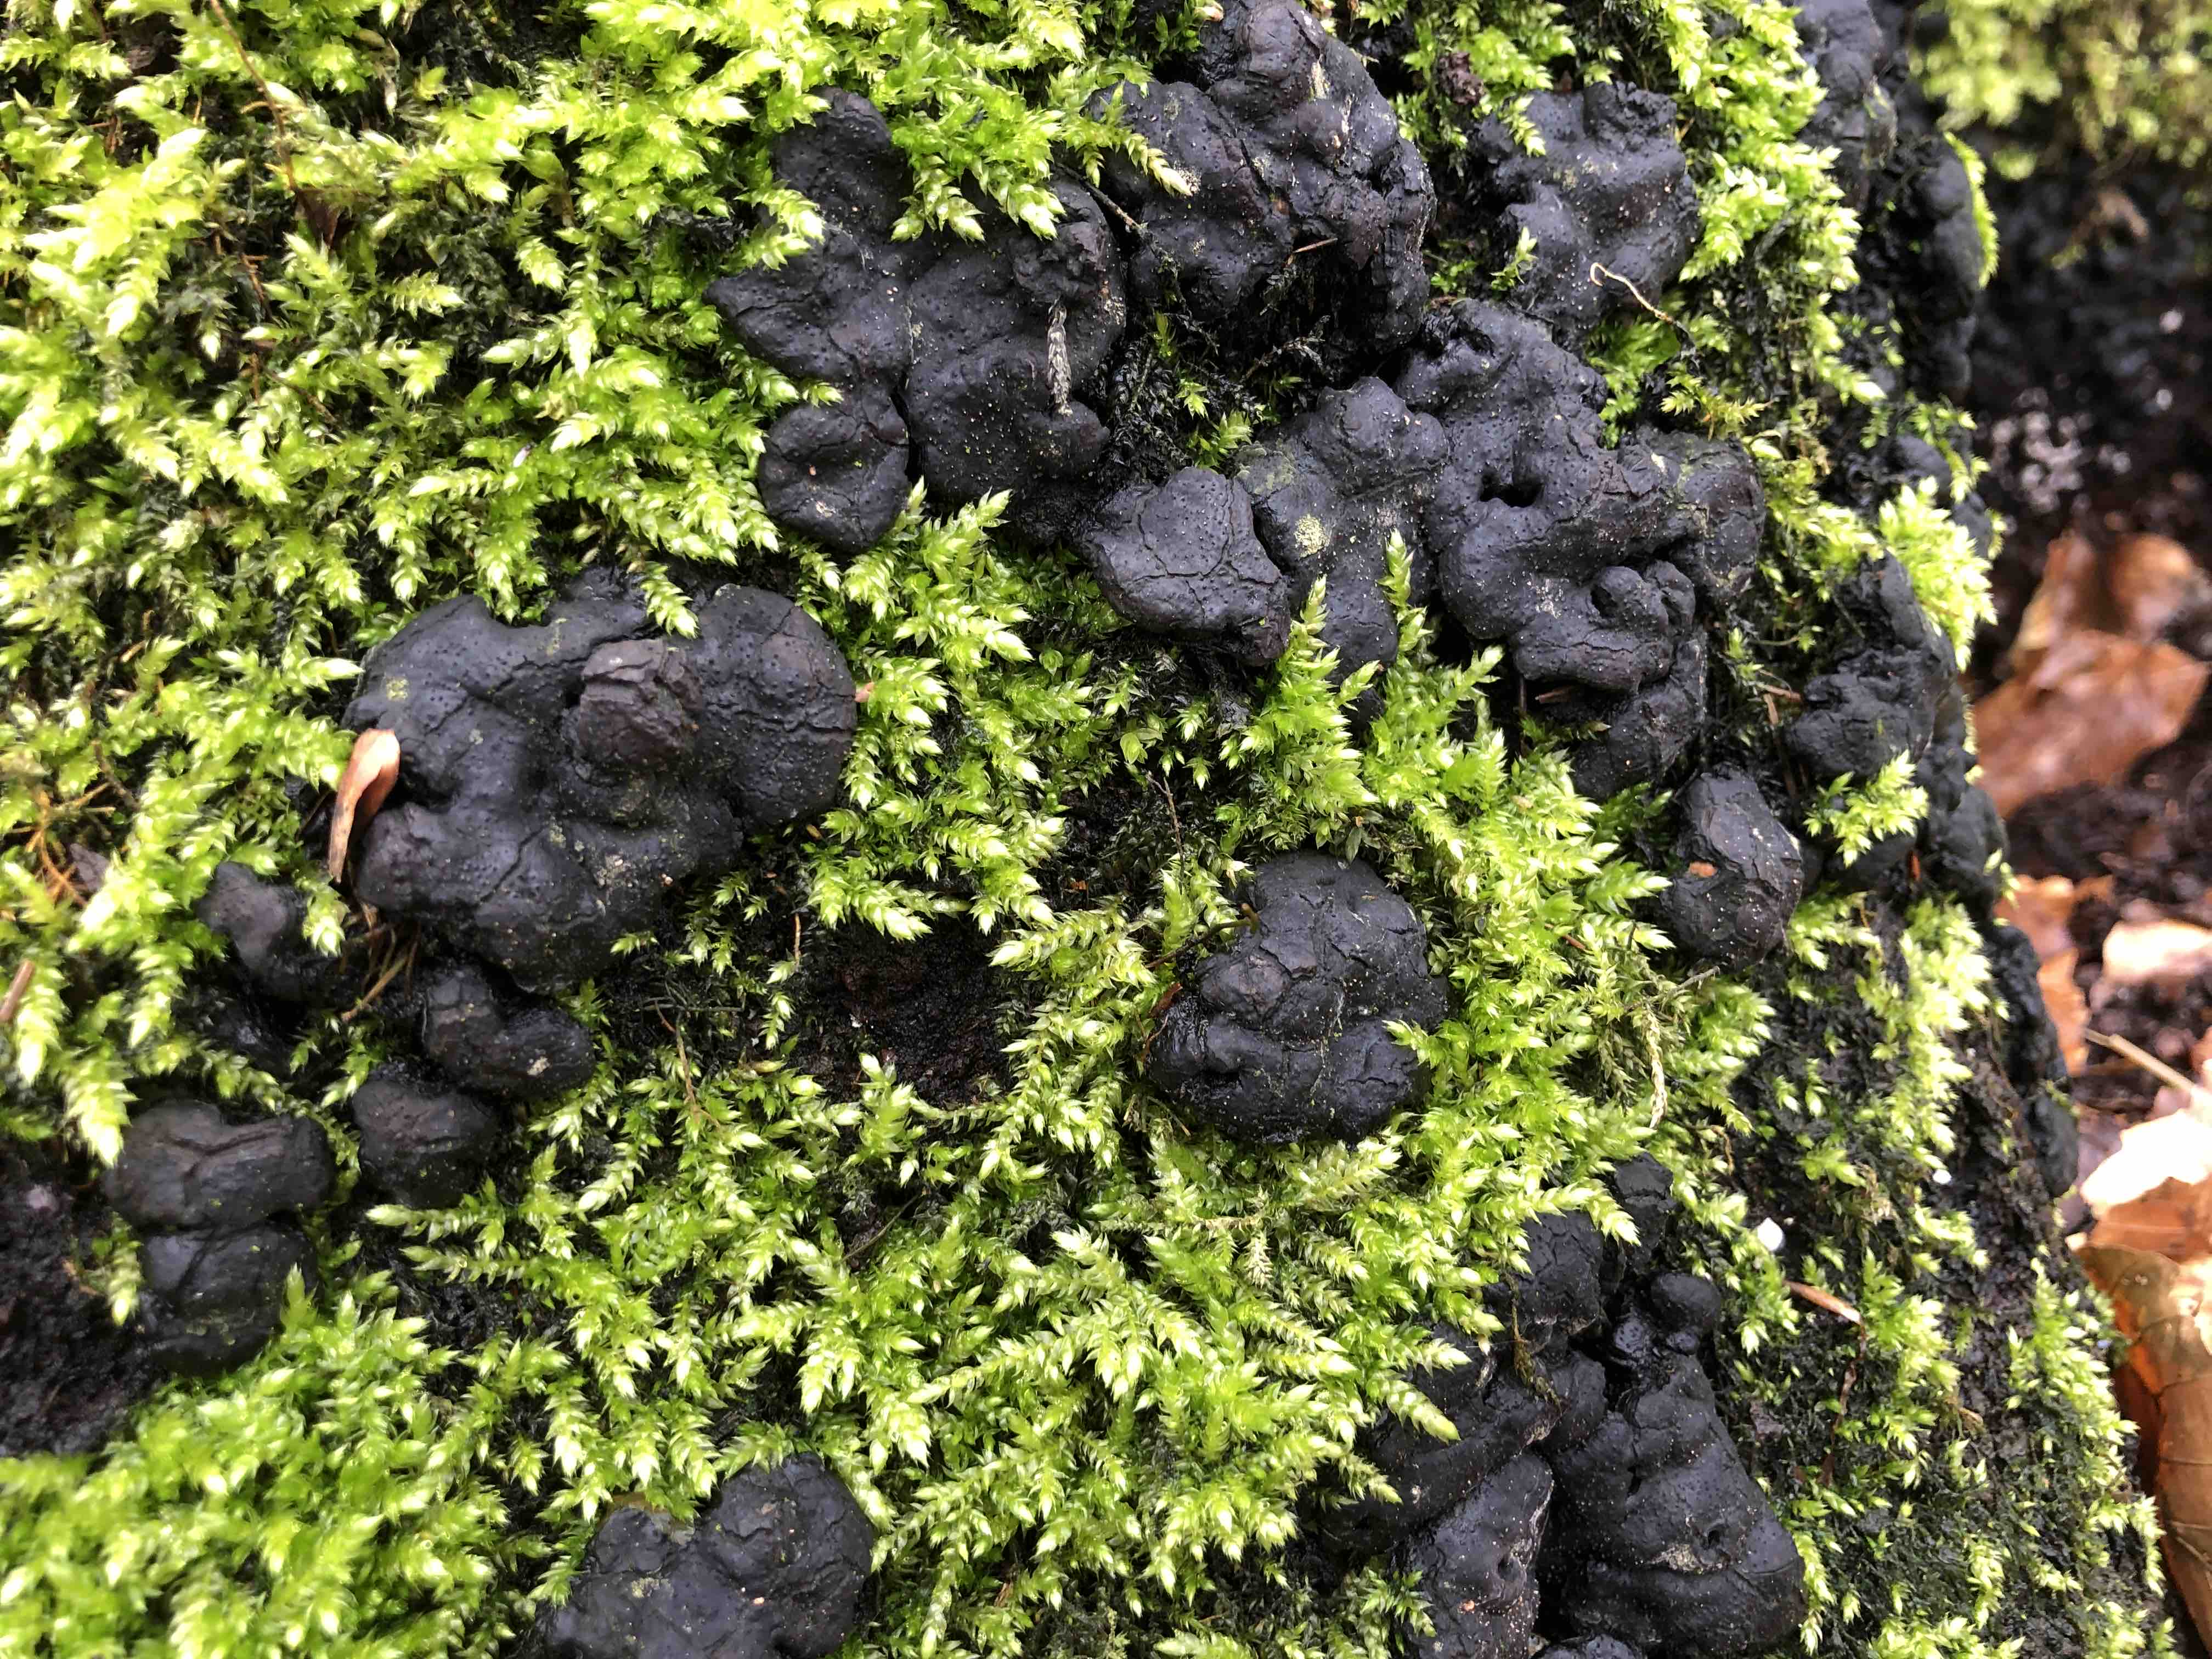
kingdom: Fungi
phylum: Ascomycota
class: Sordariomycetes
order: Xylariales
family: Xylariaceae
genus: Kretzschmaria
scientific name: Kretzschmaria deusta
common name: stor kulsvamp
